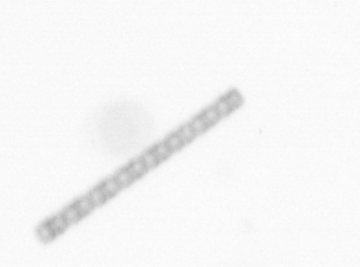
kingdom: Chromista
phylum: Ochrophyta
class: Bacillariophyceae
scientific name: Bacillariophyceae
